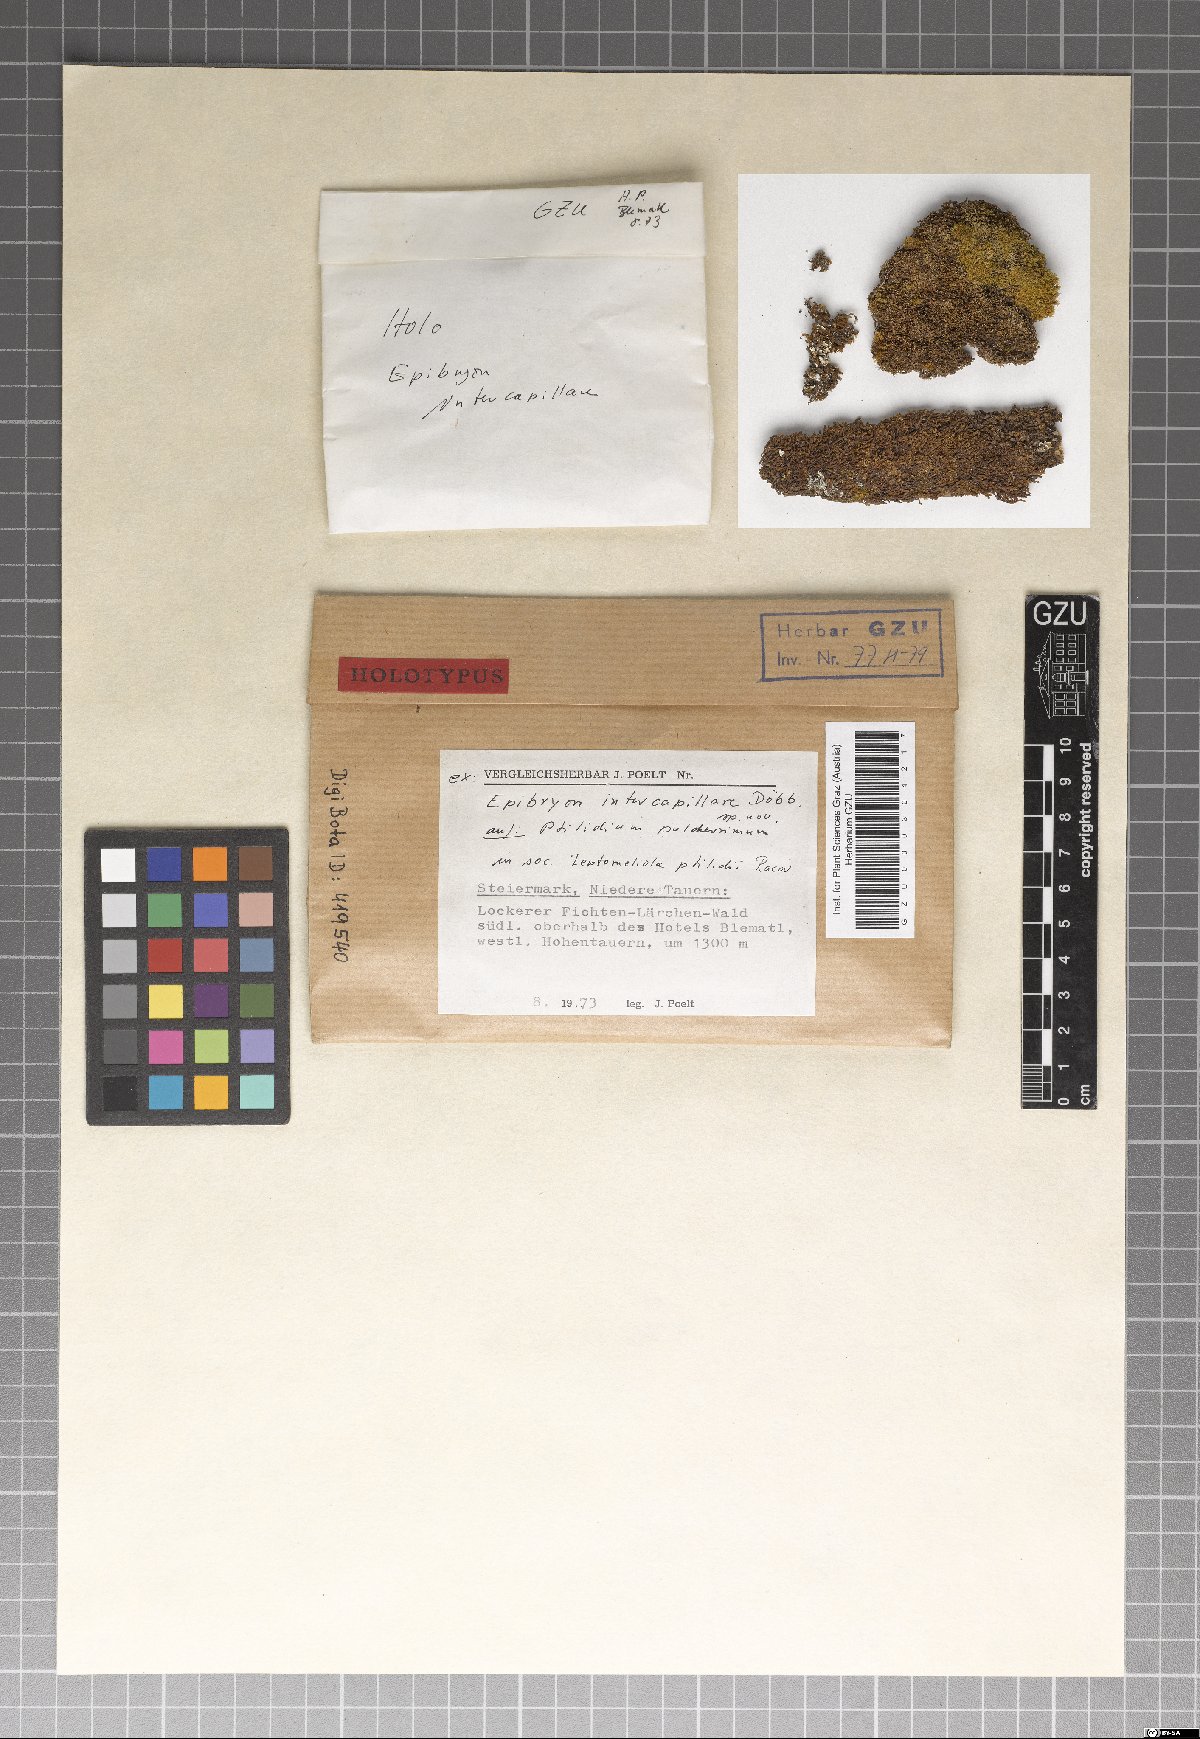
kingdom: Fungi
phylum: Ascomycota
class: Eurotiomycetes
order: Chaetothyriales
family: Epibryaceae
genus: Epibryon
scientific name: Epibryon intercapillare
